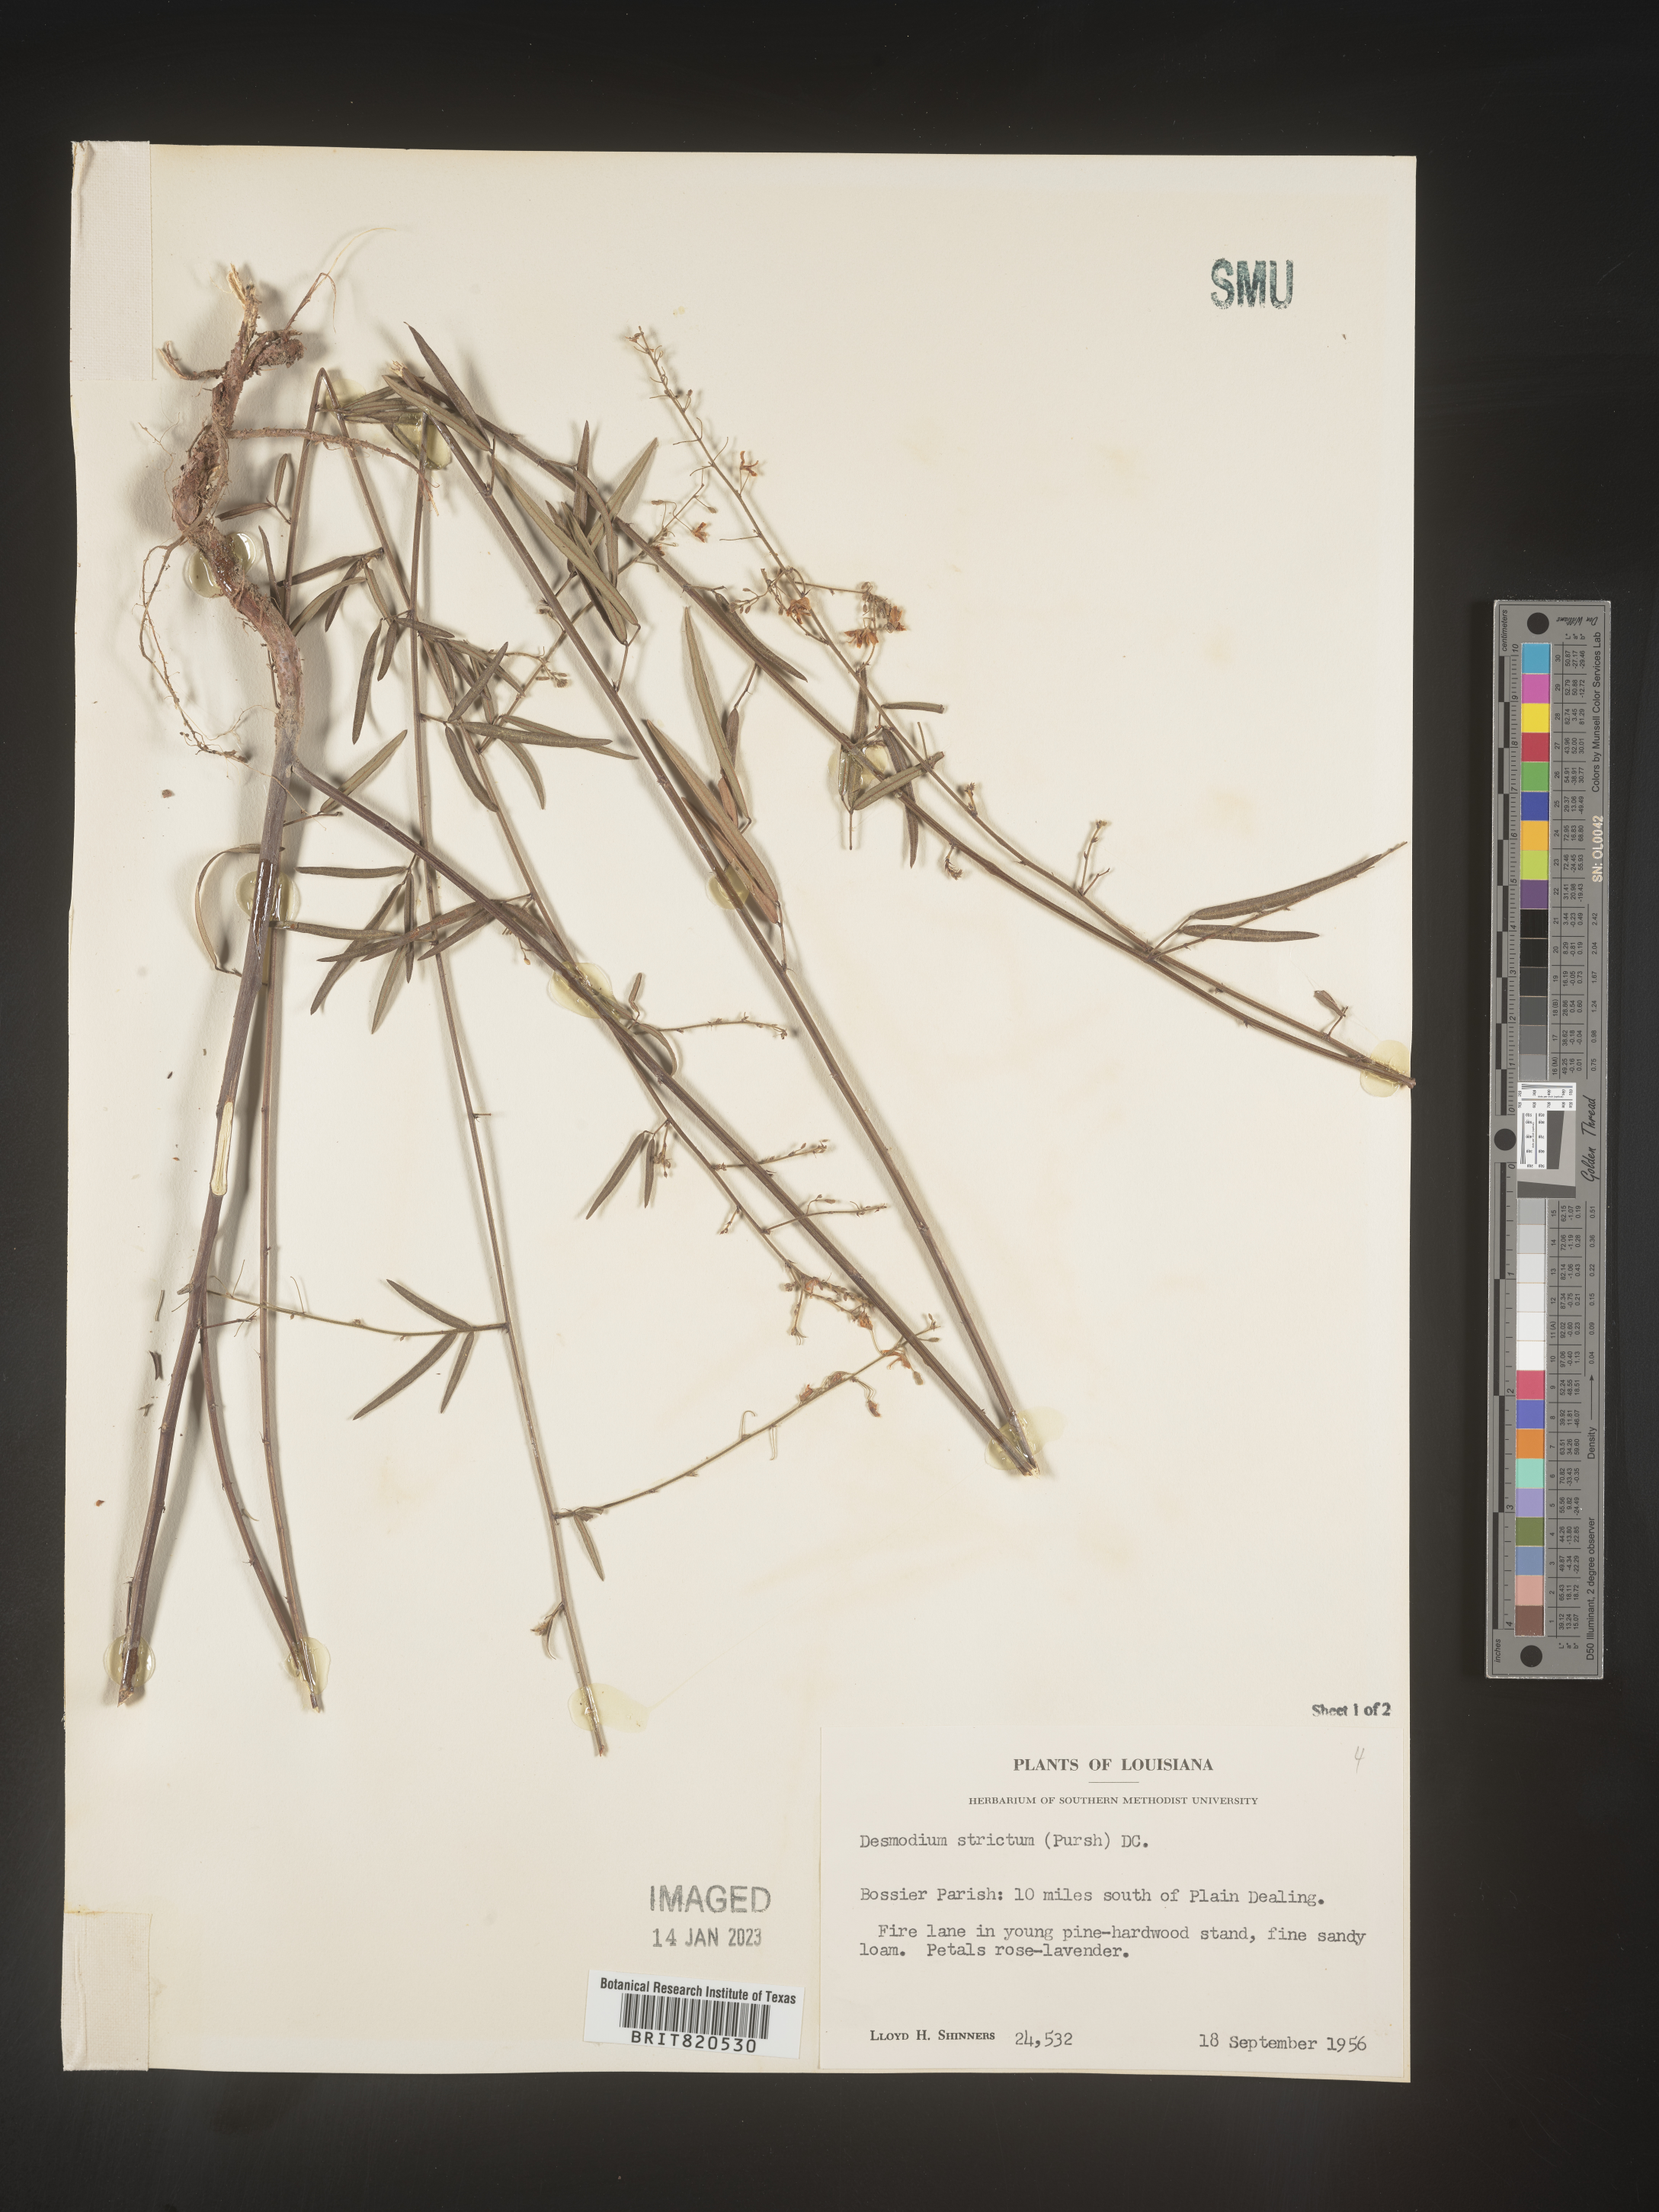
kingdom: Plantae
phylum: Tracheophyta
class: Magnoliopsida
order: Fabales
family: Fabaceae
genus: Desmodium
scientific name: Desmodium strictum
